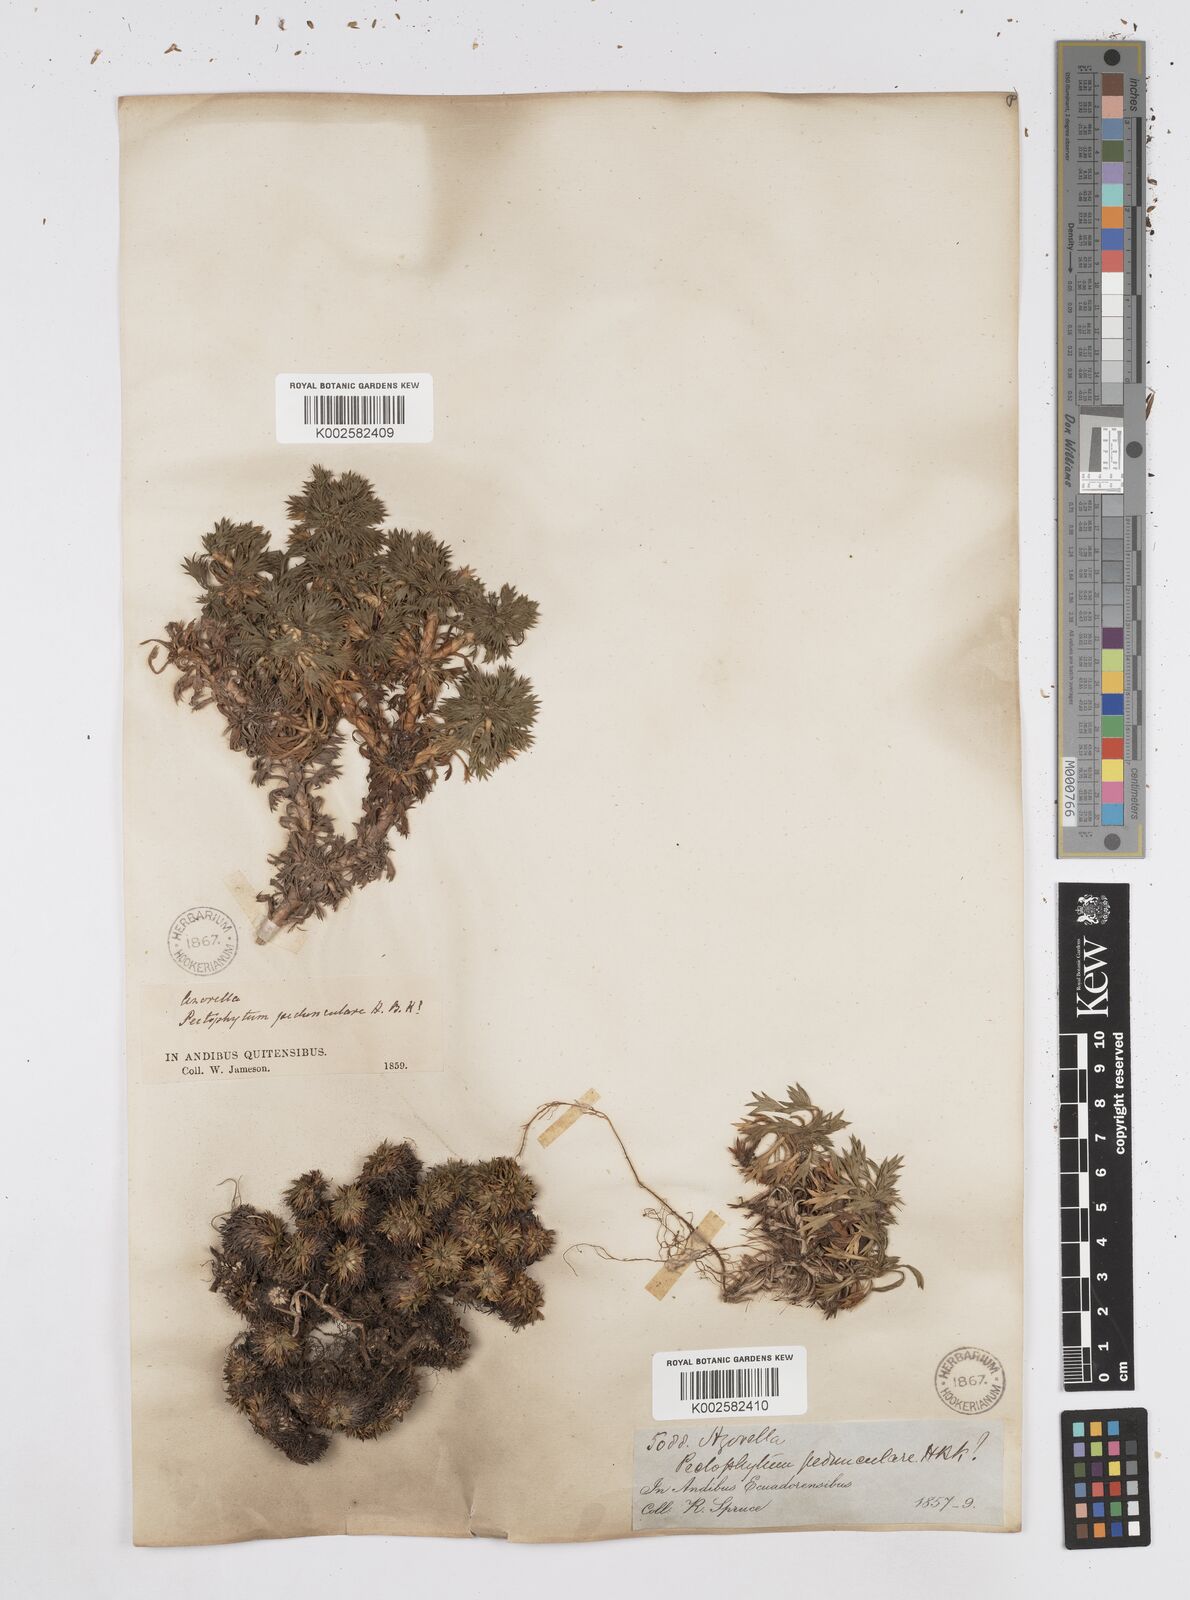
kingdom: Plantae
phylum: Tracheophyta
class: Magnoliopsida
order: Apiales
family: Apiaceae
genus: Azorella
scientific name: Azorella pedunculata
